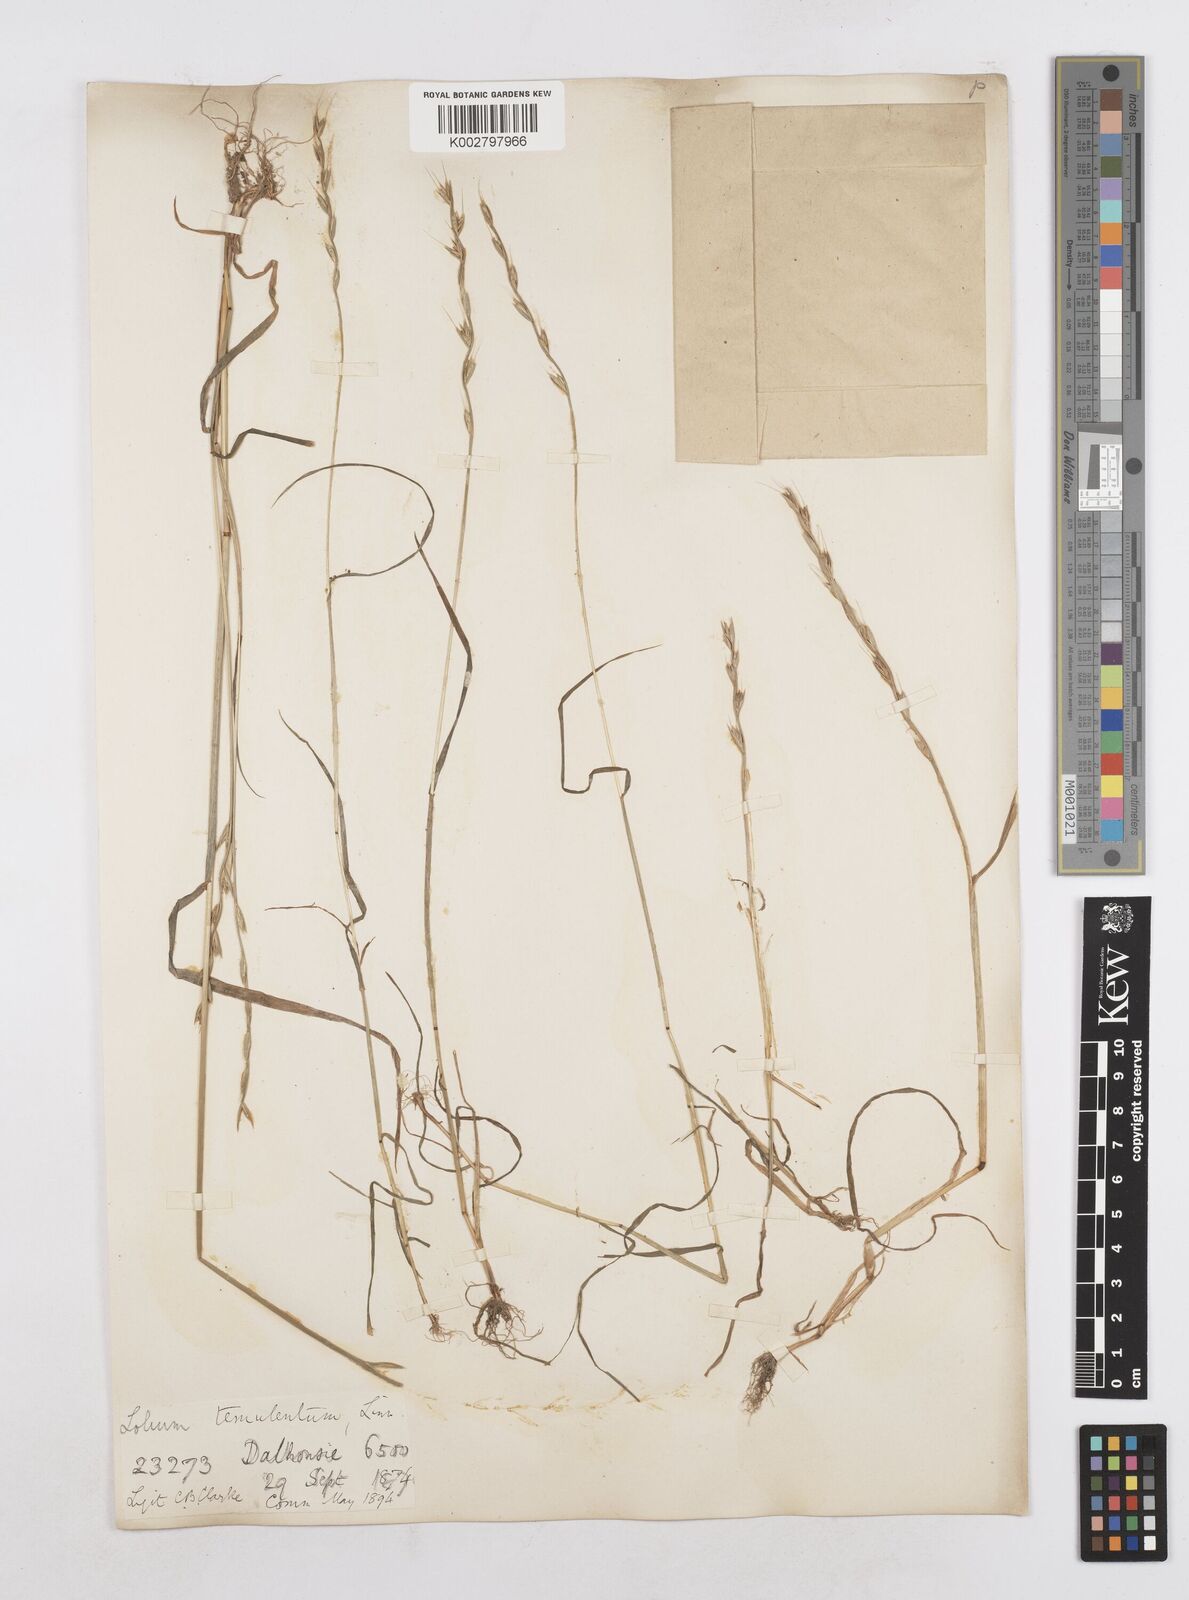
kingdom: Plantae
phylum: Tracheophyta
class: Liliopsida
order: Poales
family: Poaceae
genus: Lolium
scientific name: Lolium temulentum
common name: Darnel
